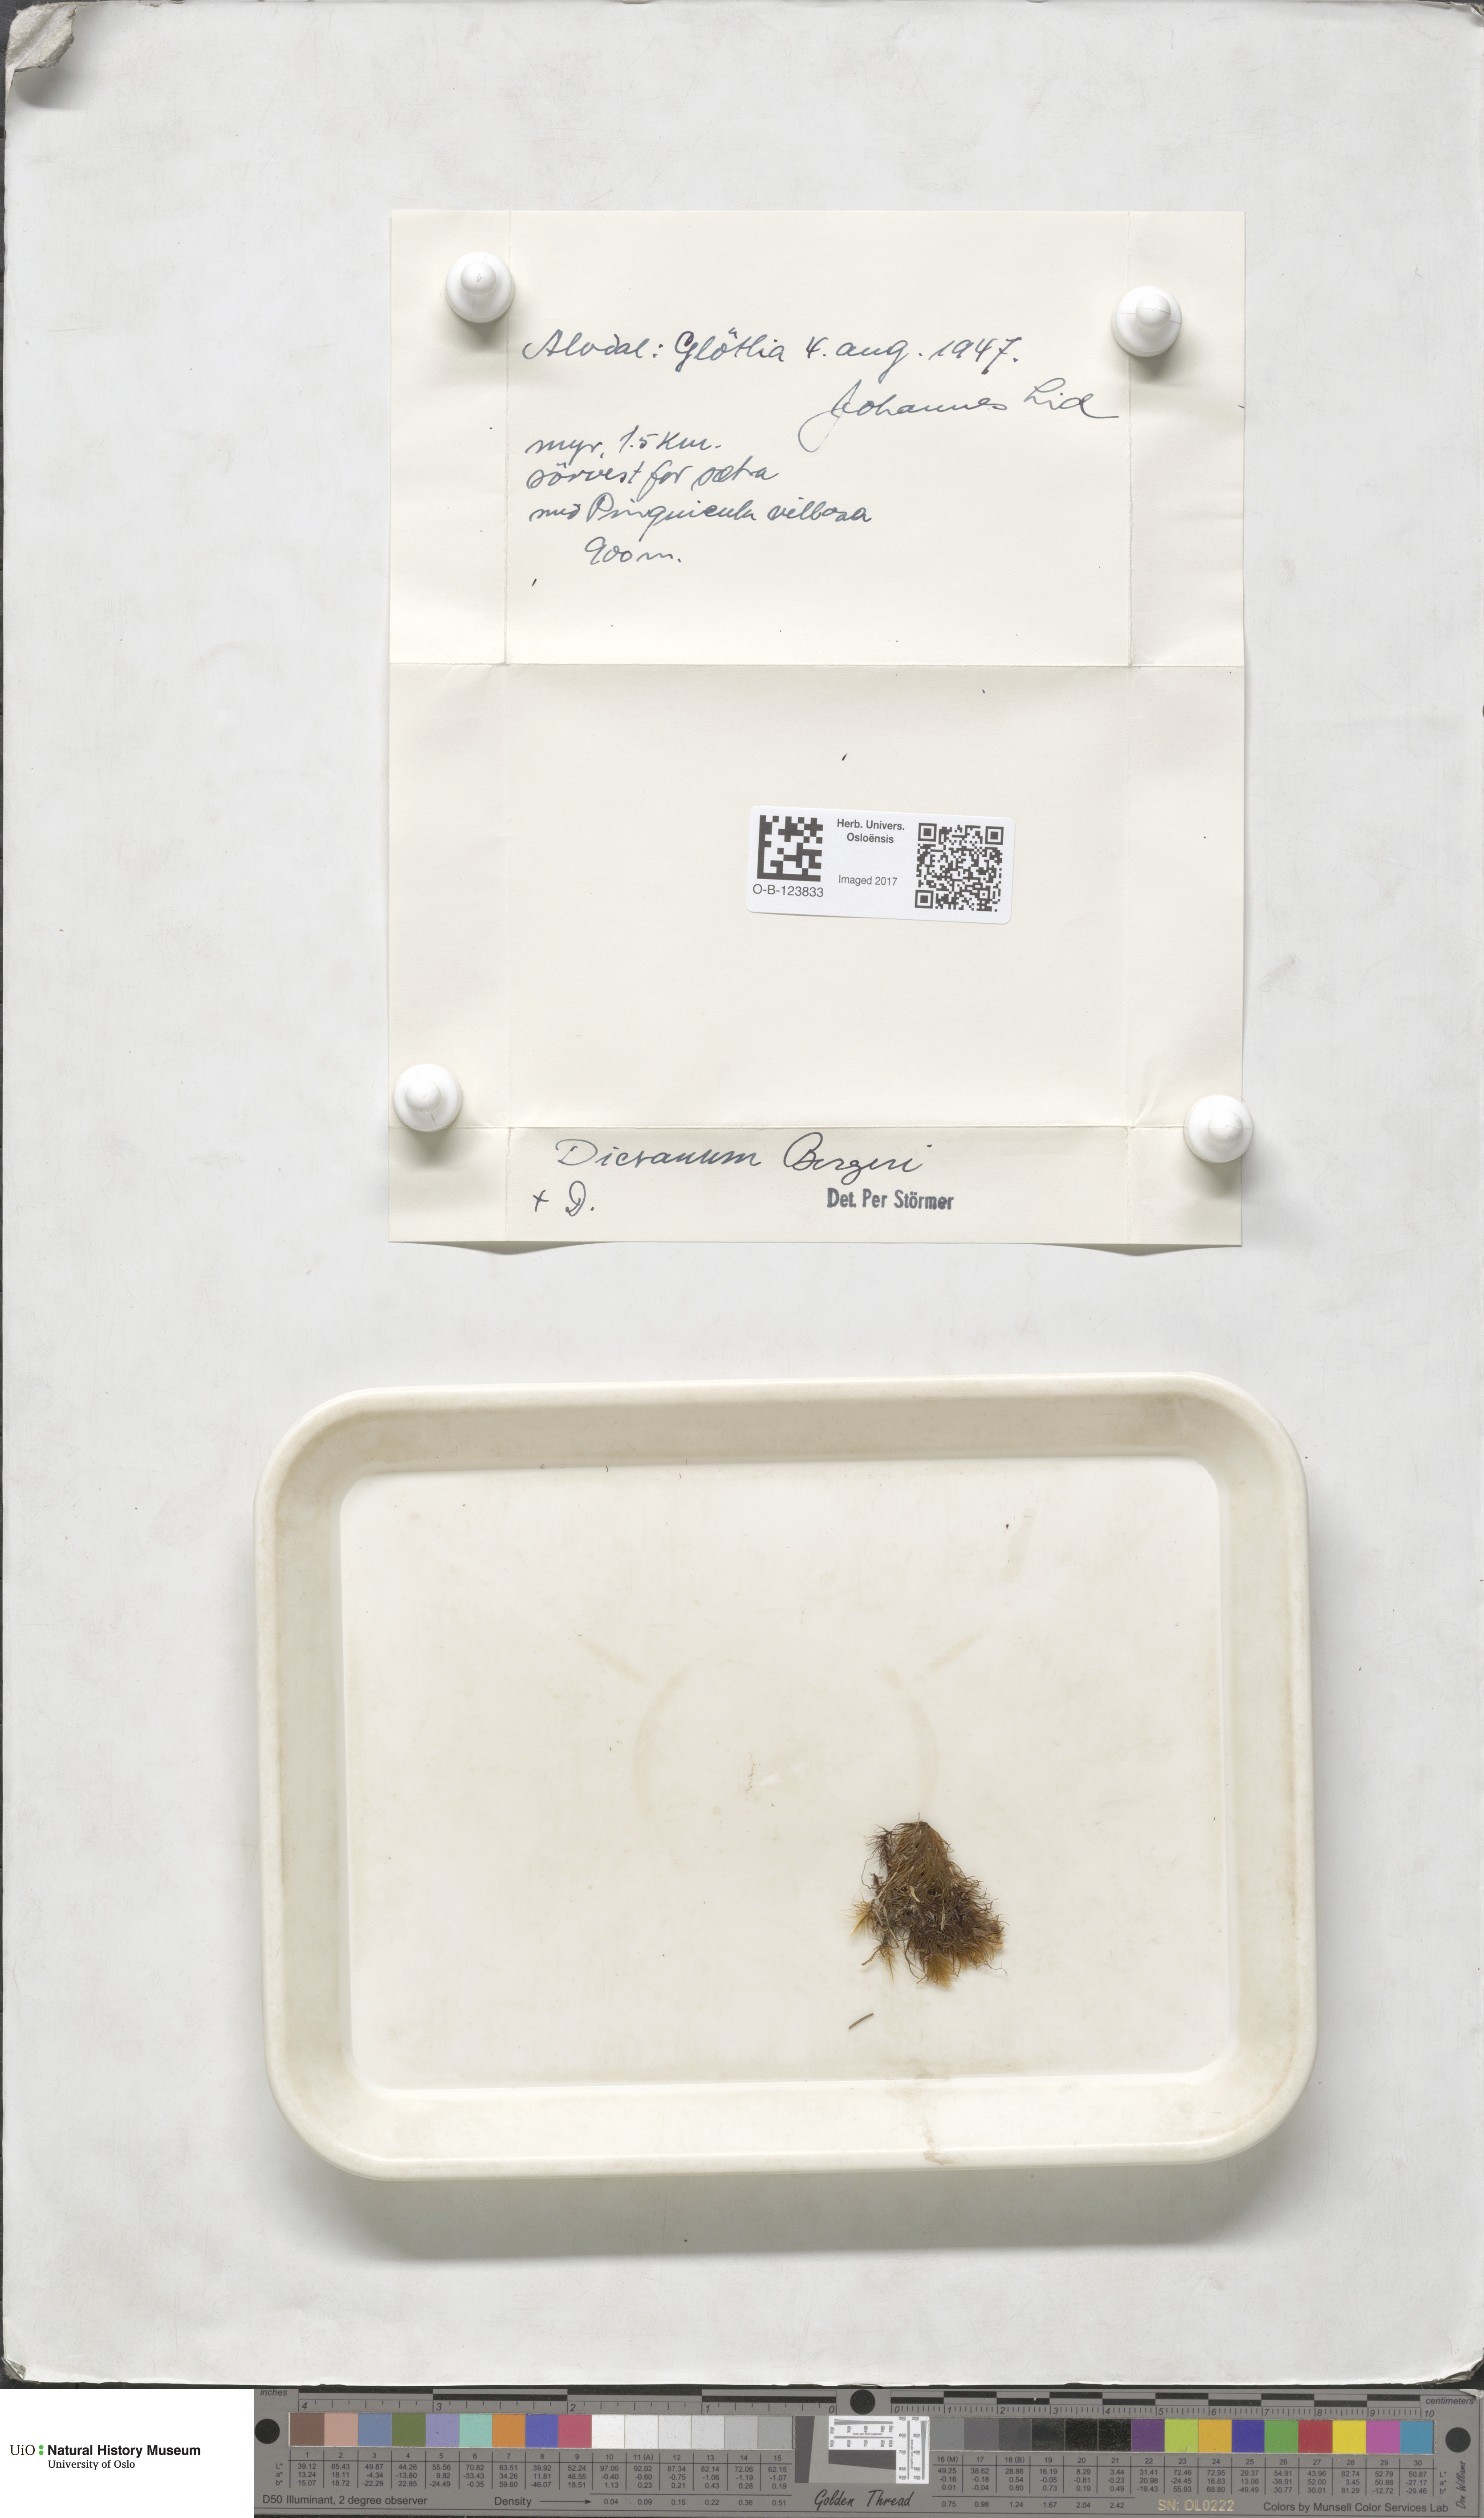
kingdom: Plantae
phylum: Bryophyta
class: Bryopsida
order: Dicranales
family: Dicranaceae
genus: Dicranum
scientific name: Dicranum undulatum
